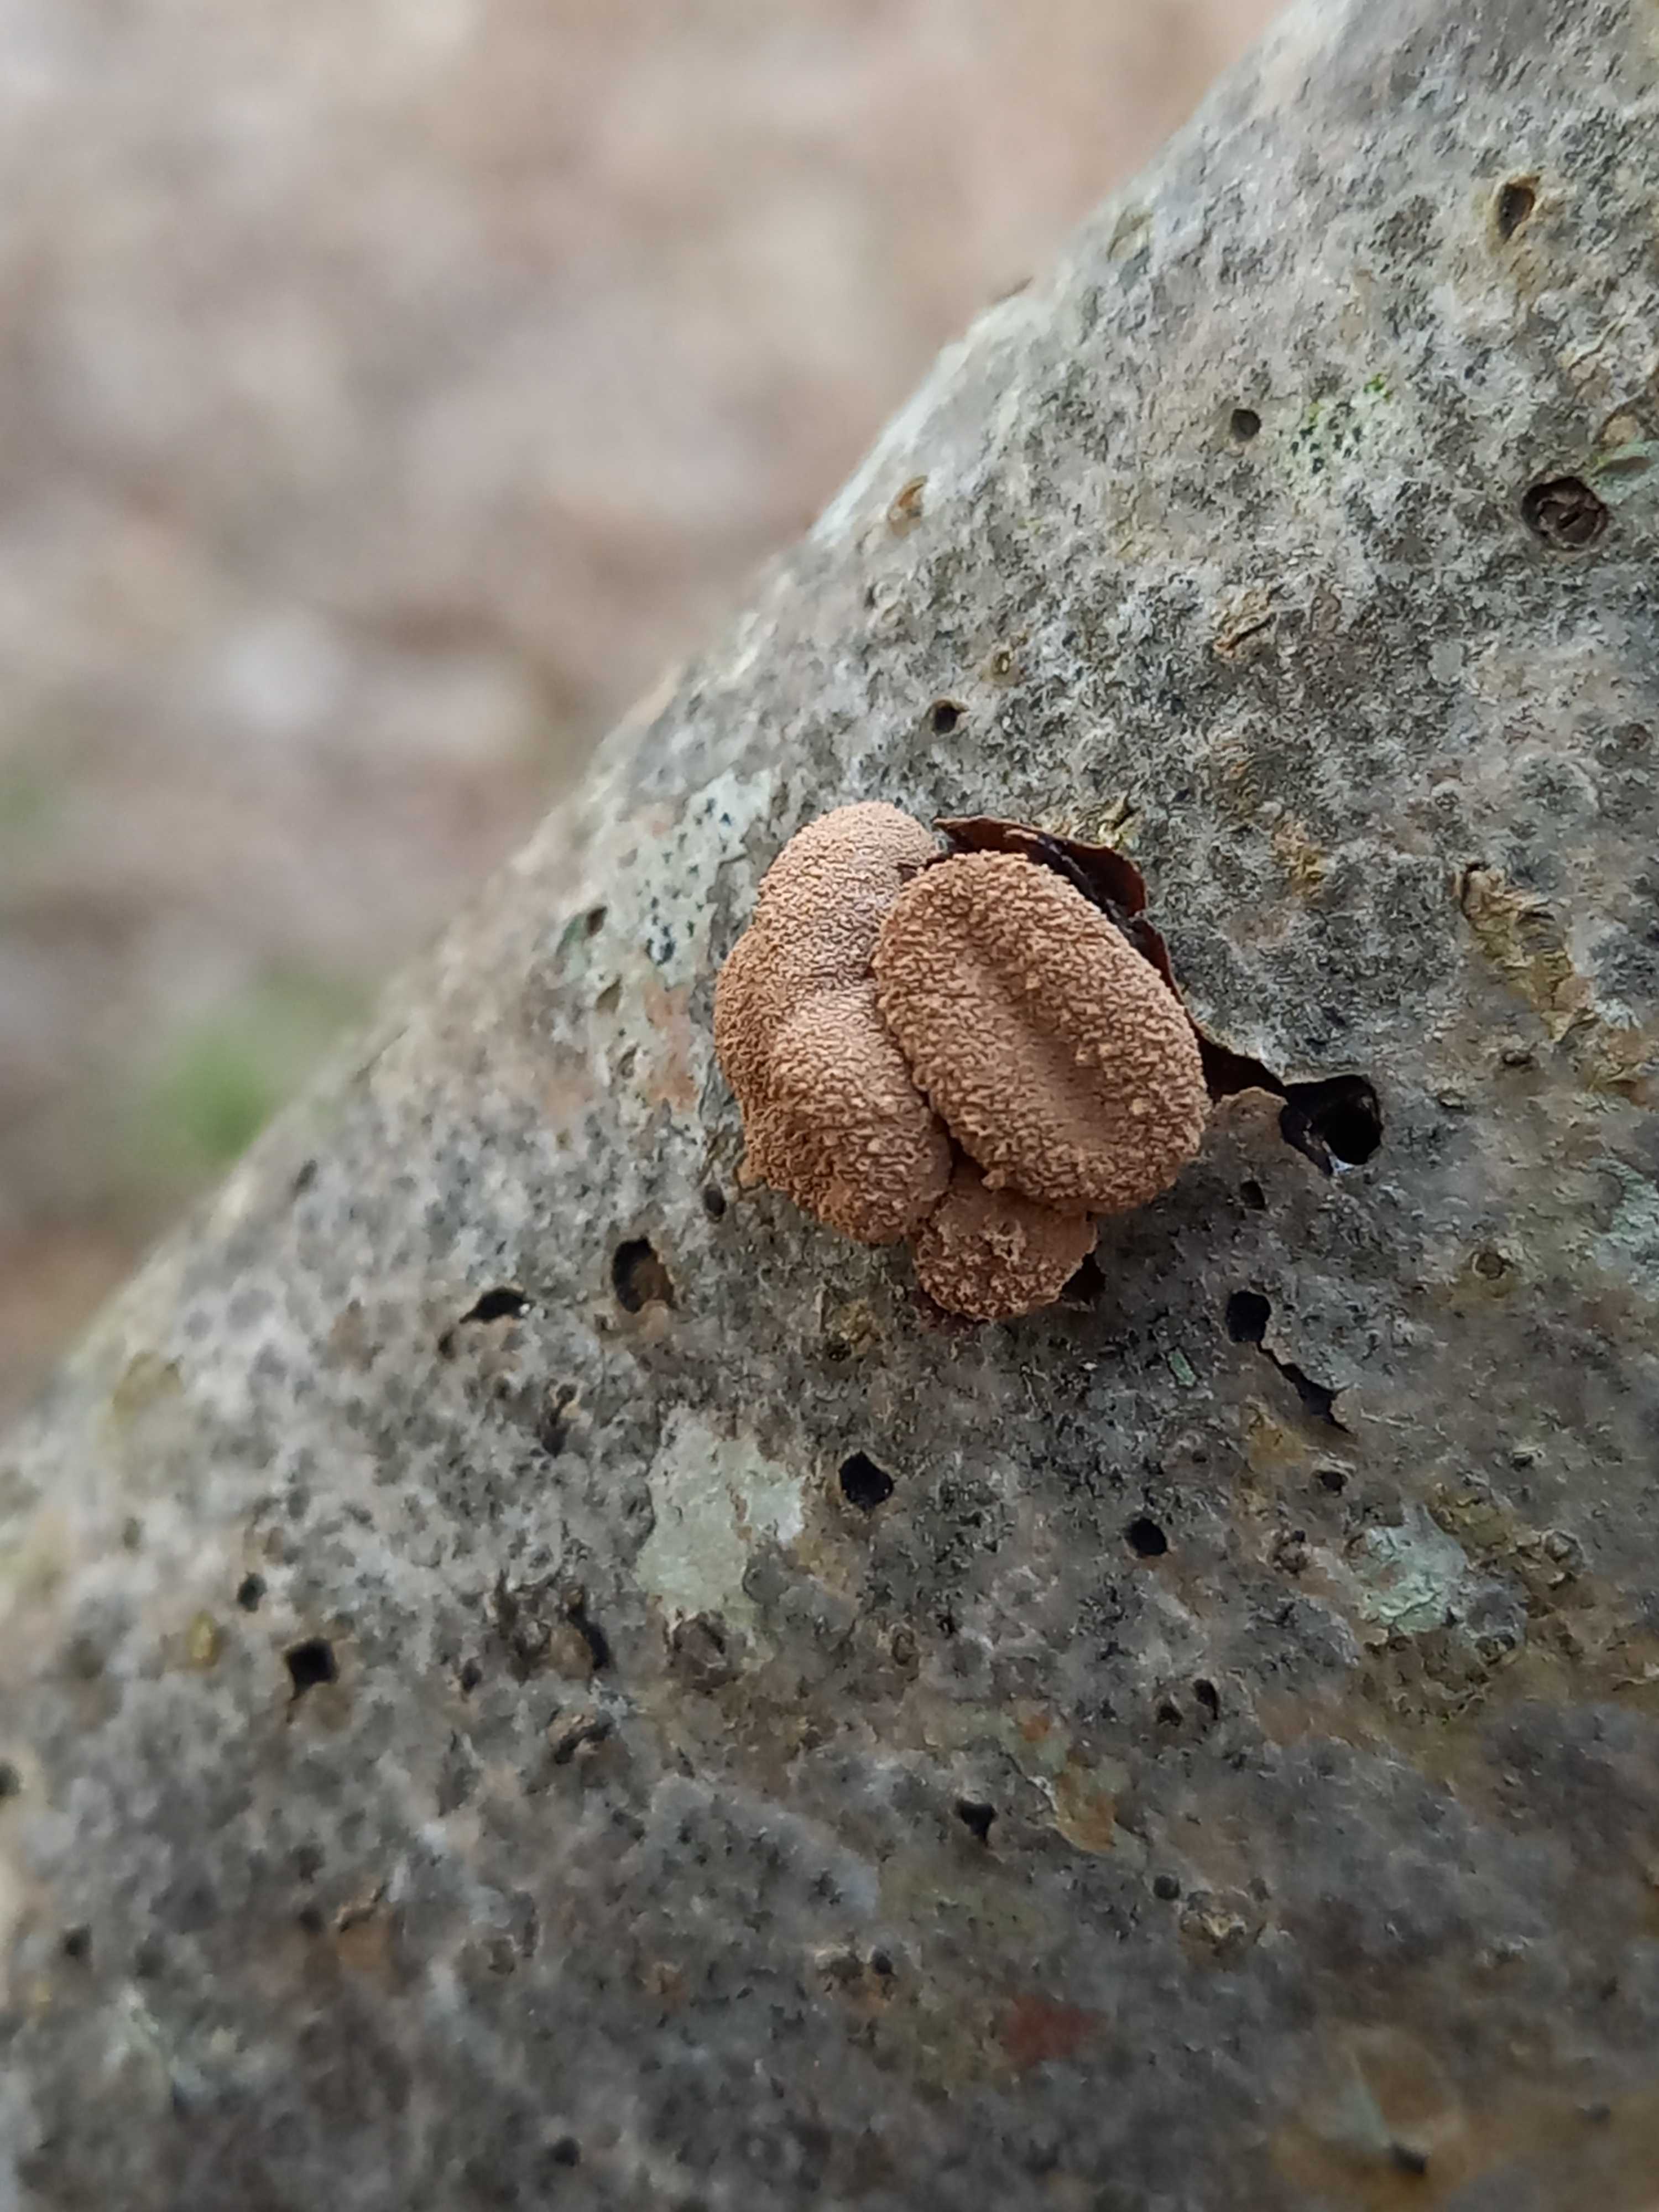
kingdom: Fungi
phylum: Ascomycota
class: Leotiomycetes
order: Helotiales
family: Cenangiaceae
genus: Encoelia
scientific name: Encoelia furfuracea
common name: hassel-læderskive
